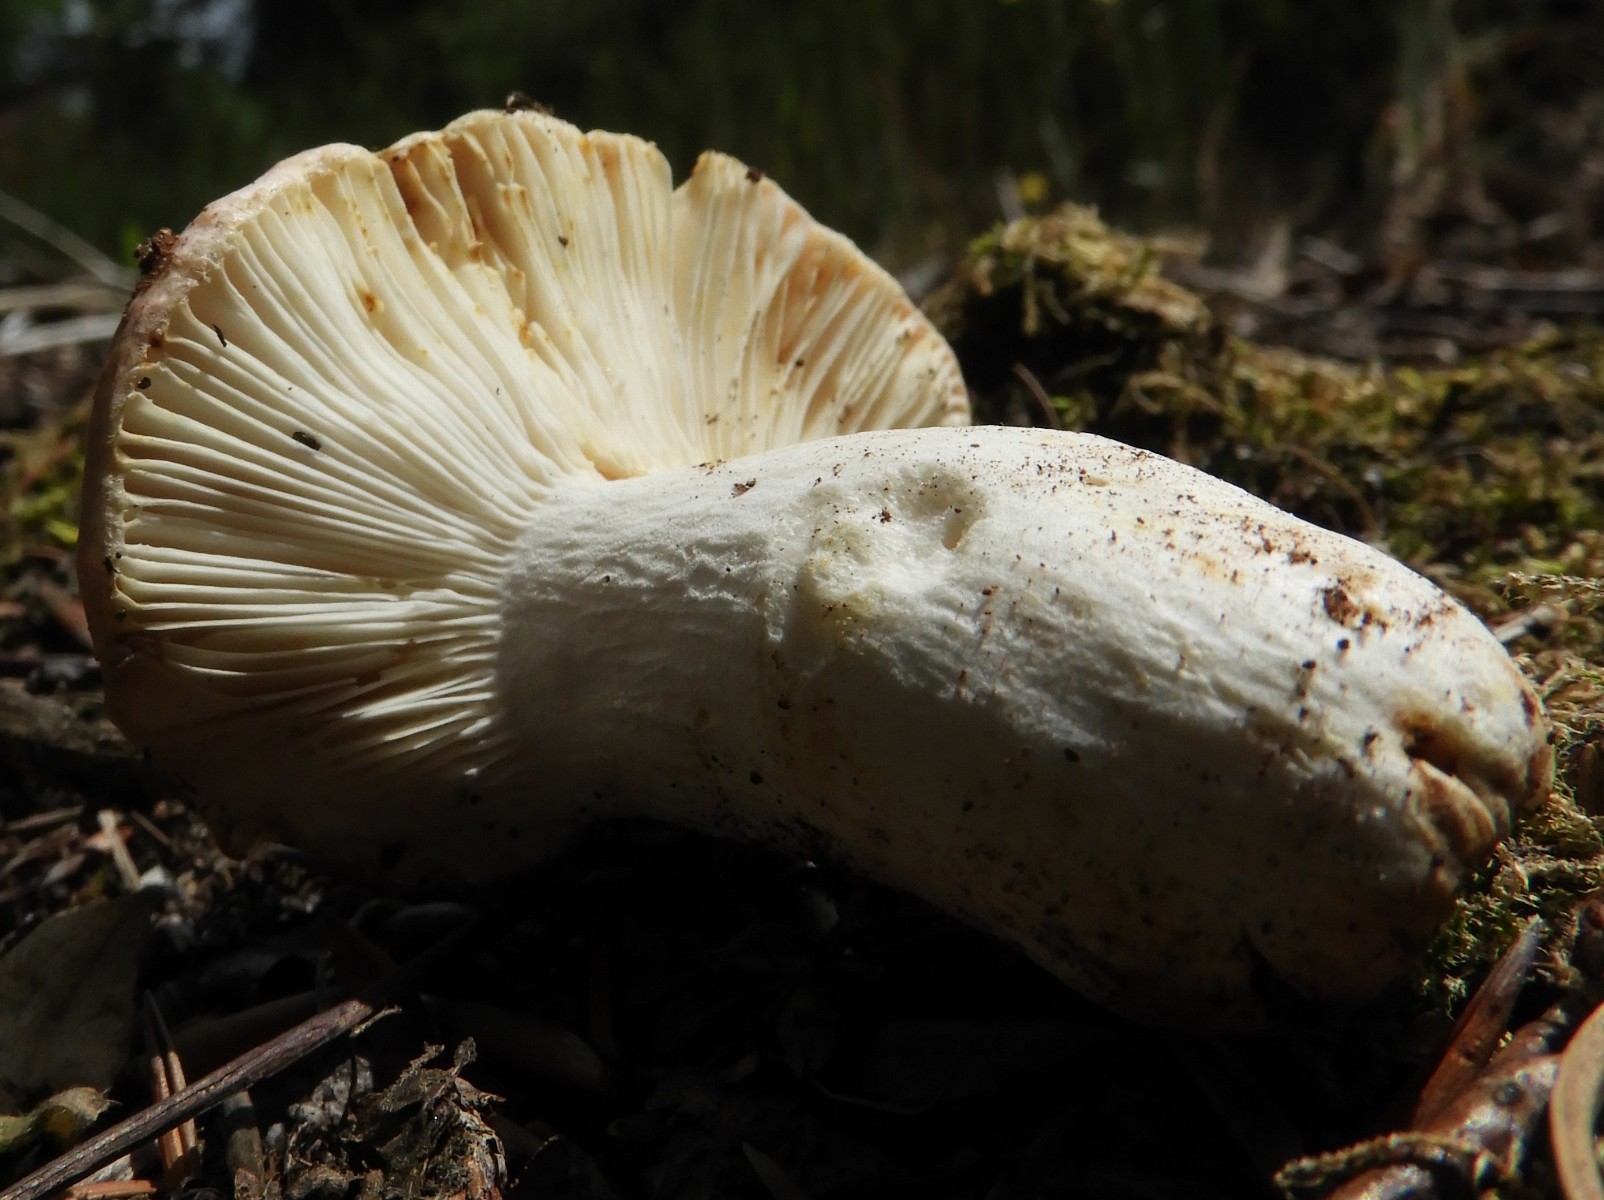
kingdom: Fungi
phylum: Basidiomycota
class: Agaricomycetes
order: Russulales
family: Russulaceae
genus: Russula
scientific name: Russula vesca
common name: spiselig skørhat
